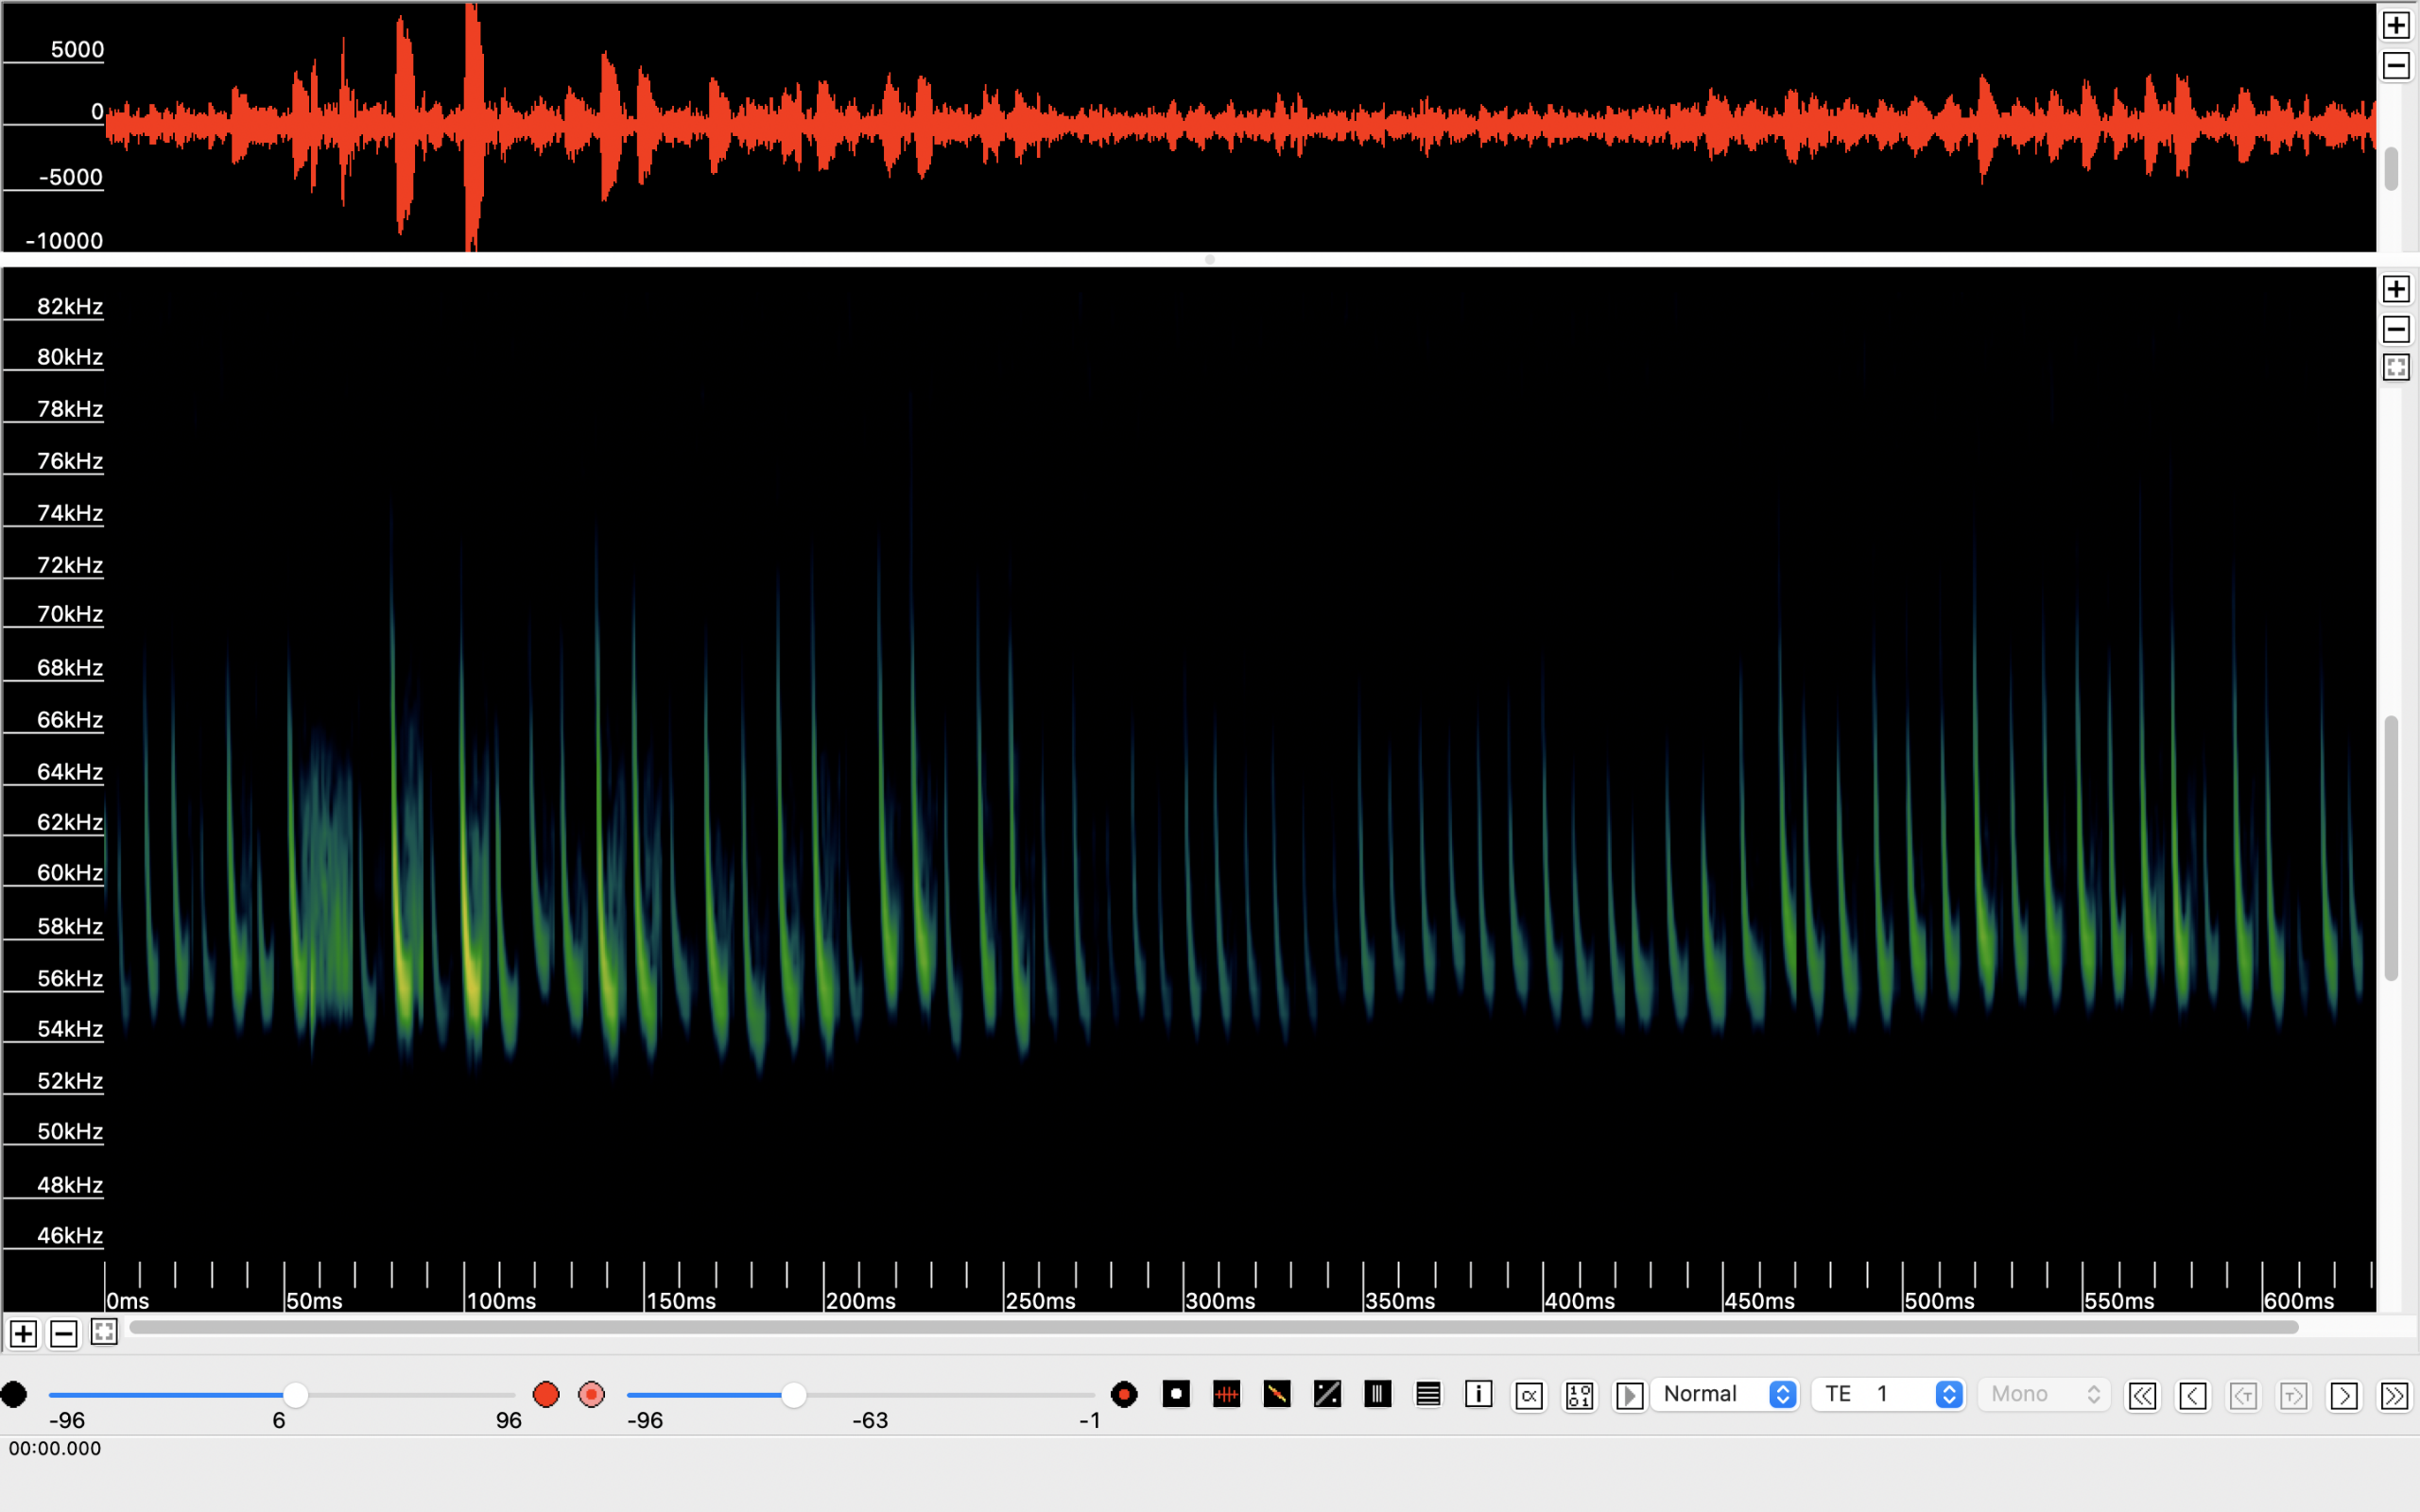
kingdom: Animalia
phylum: Chordata
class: Mammalia
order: Chiroptera
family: Vespertilionidae
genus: Pipistrellus
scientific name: Pipistrellus pygmaeus
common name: Dværgflagermus
